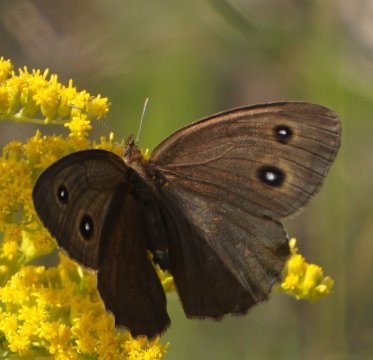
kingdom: Animalia
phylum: Arthropoda
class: Insecta
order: Lepidoptera
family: Nymphalidae
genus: Cercyonis
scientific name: Cercyonis pegala
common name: Common Wood-Nymph
